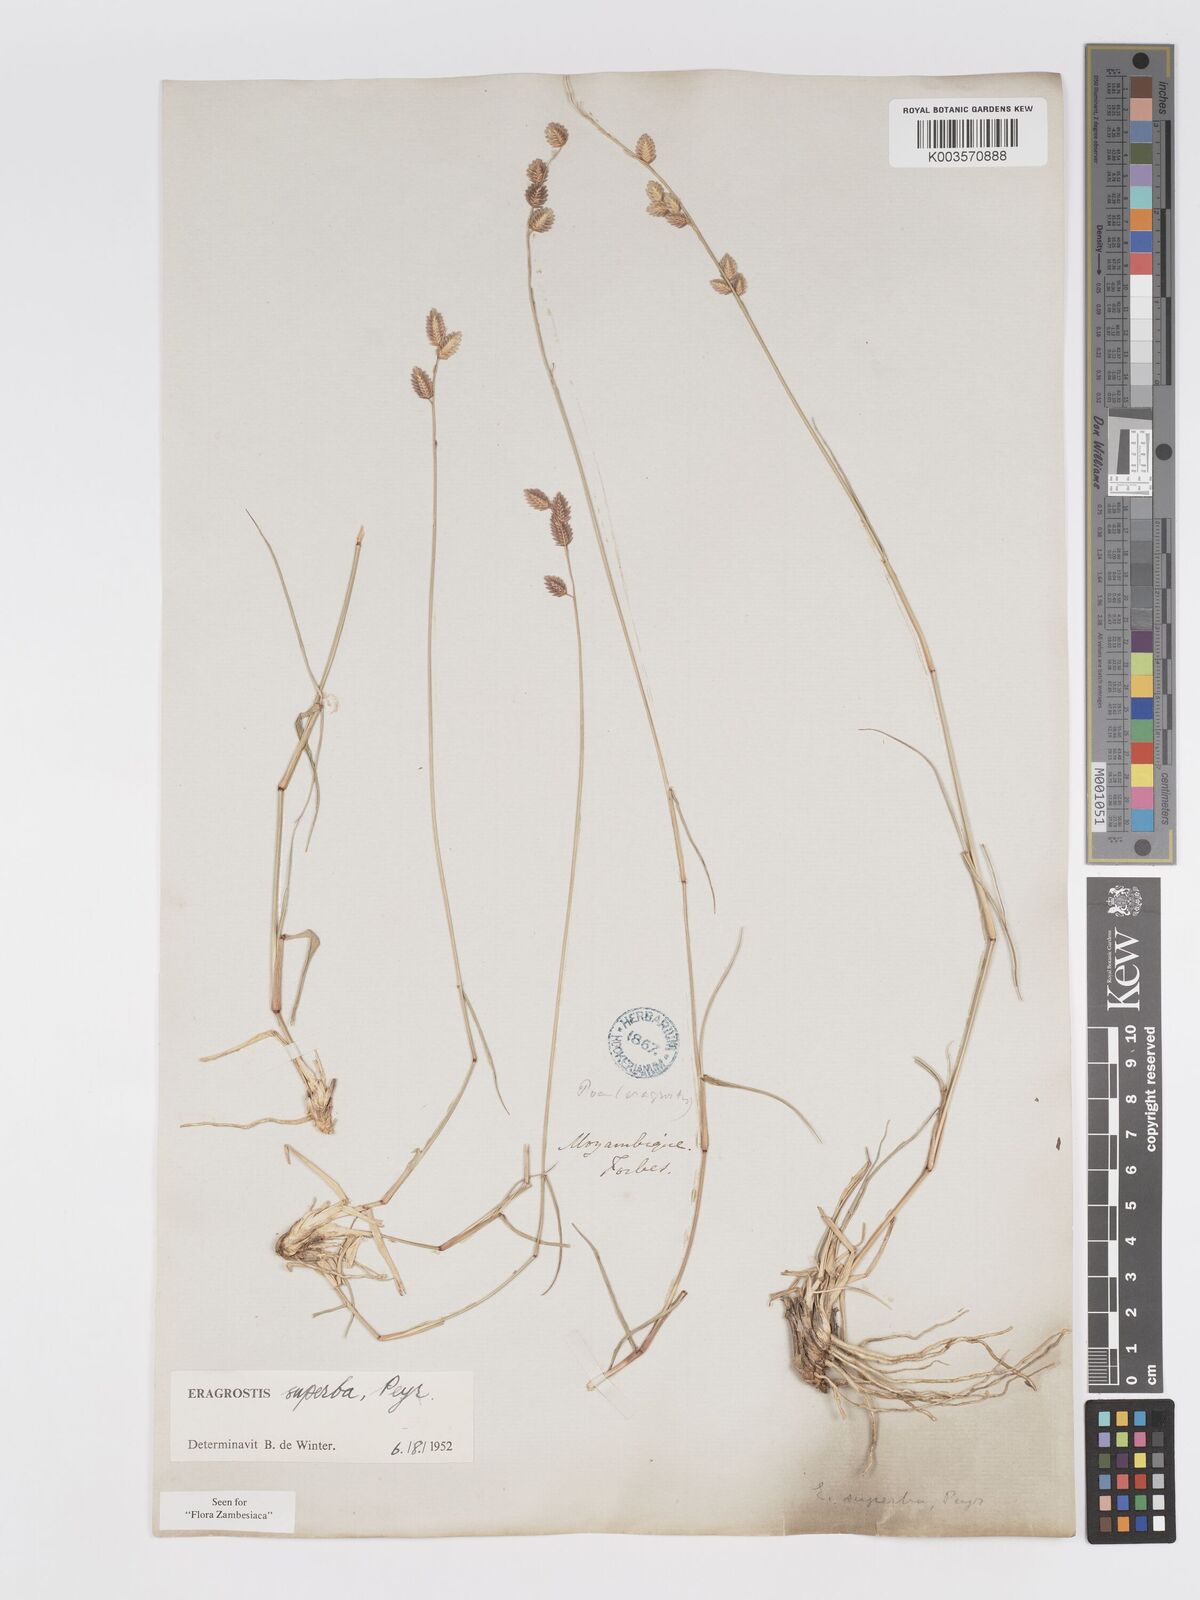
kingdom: Plantae
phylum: Tracheophyta
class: Liliopsida
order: Poales
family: Poaceae
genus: Eragrostis
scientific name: Eragrostis superba
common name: Wilman lovegrass
